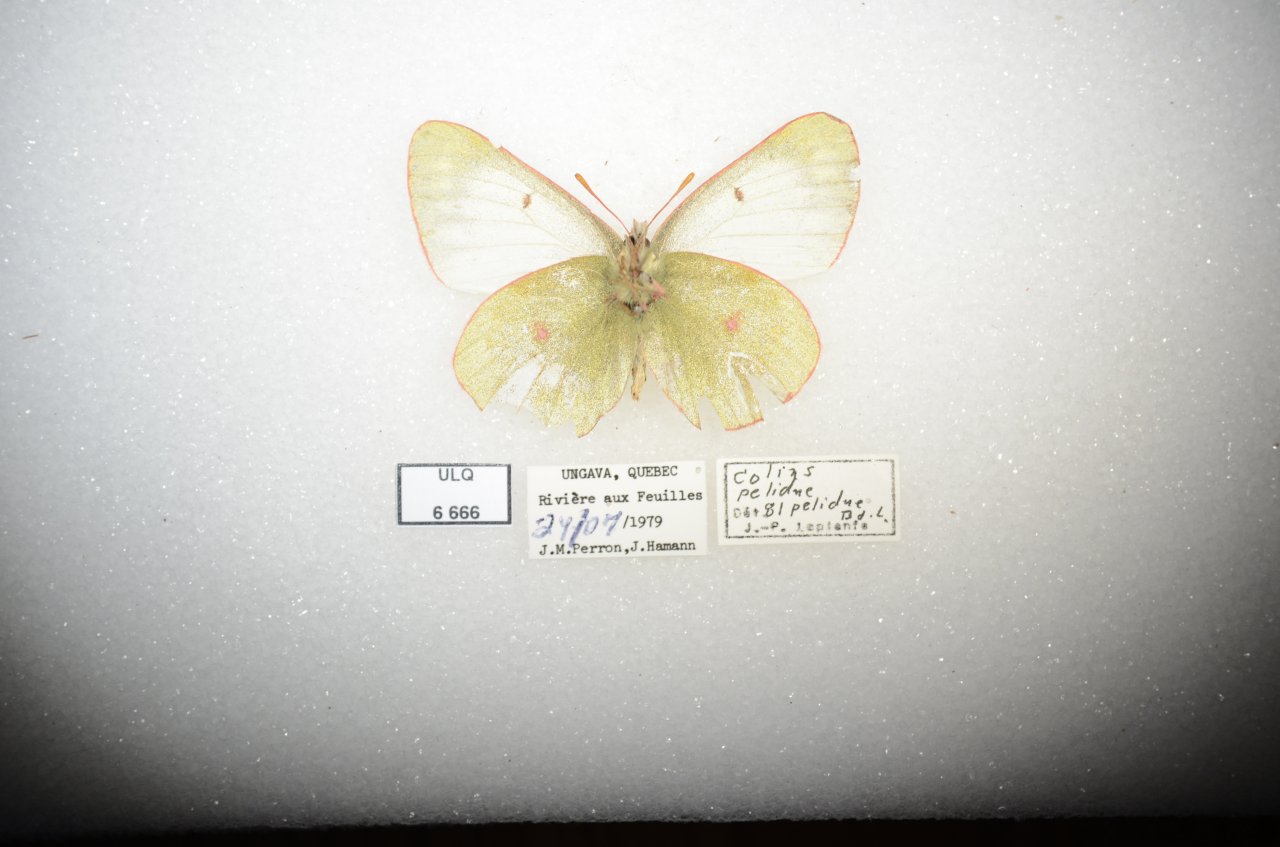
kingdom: Animalia
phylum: Arthropoda
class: Insecta
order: Lepidoptera
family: Pieridae
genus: Colias
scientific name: Colias palaeno
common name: Chippewa Sulphur
